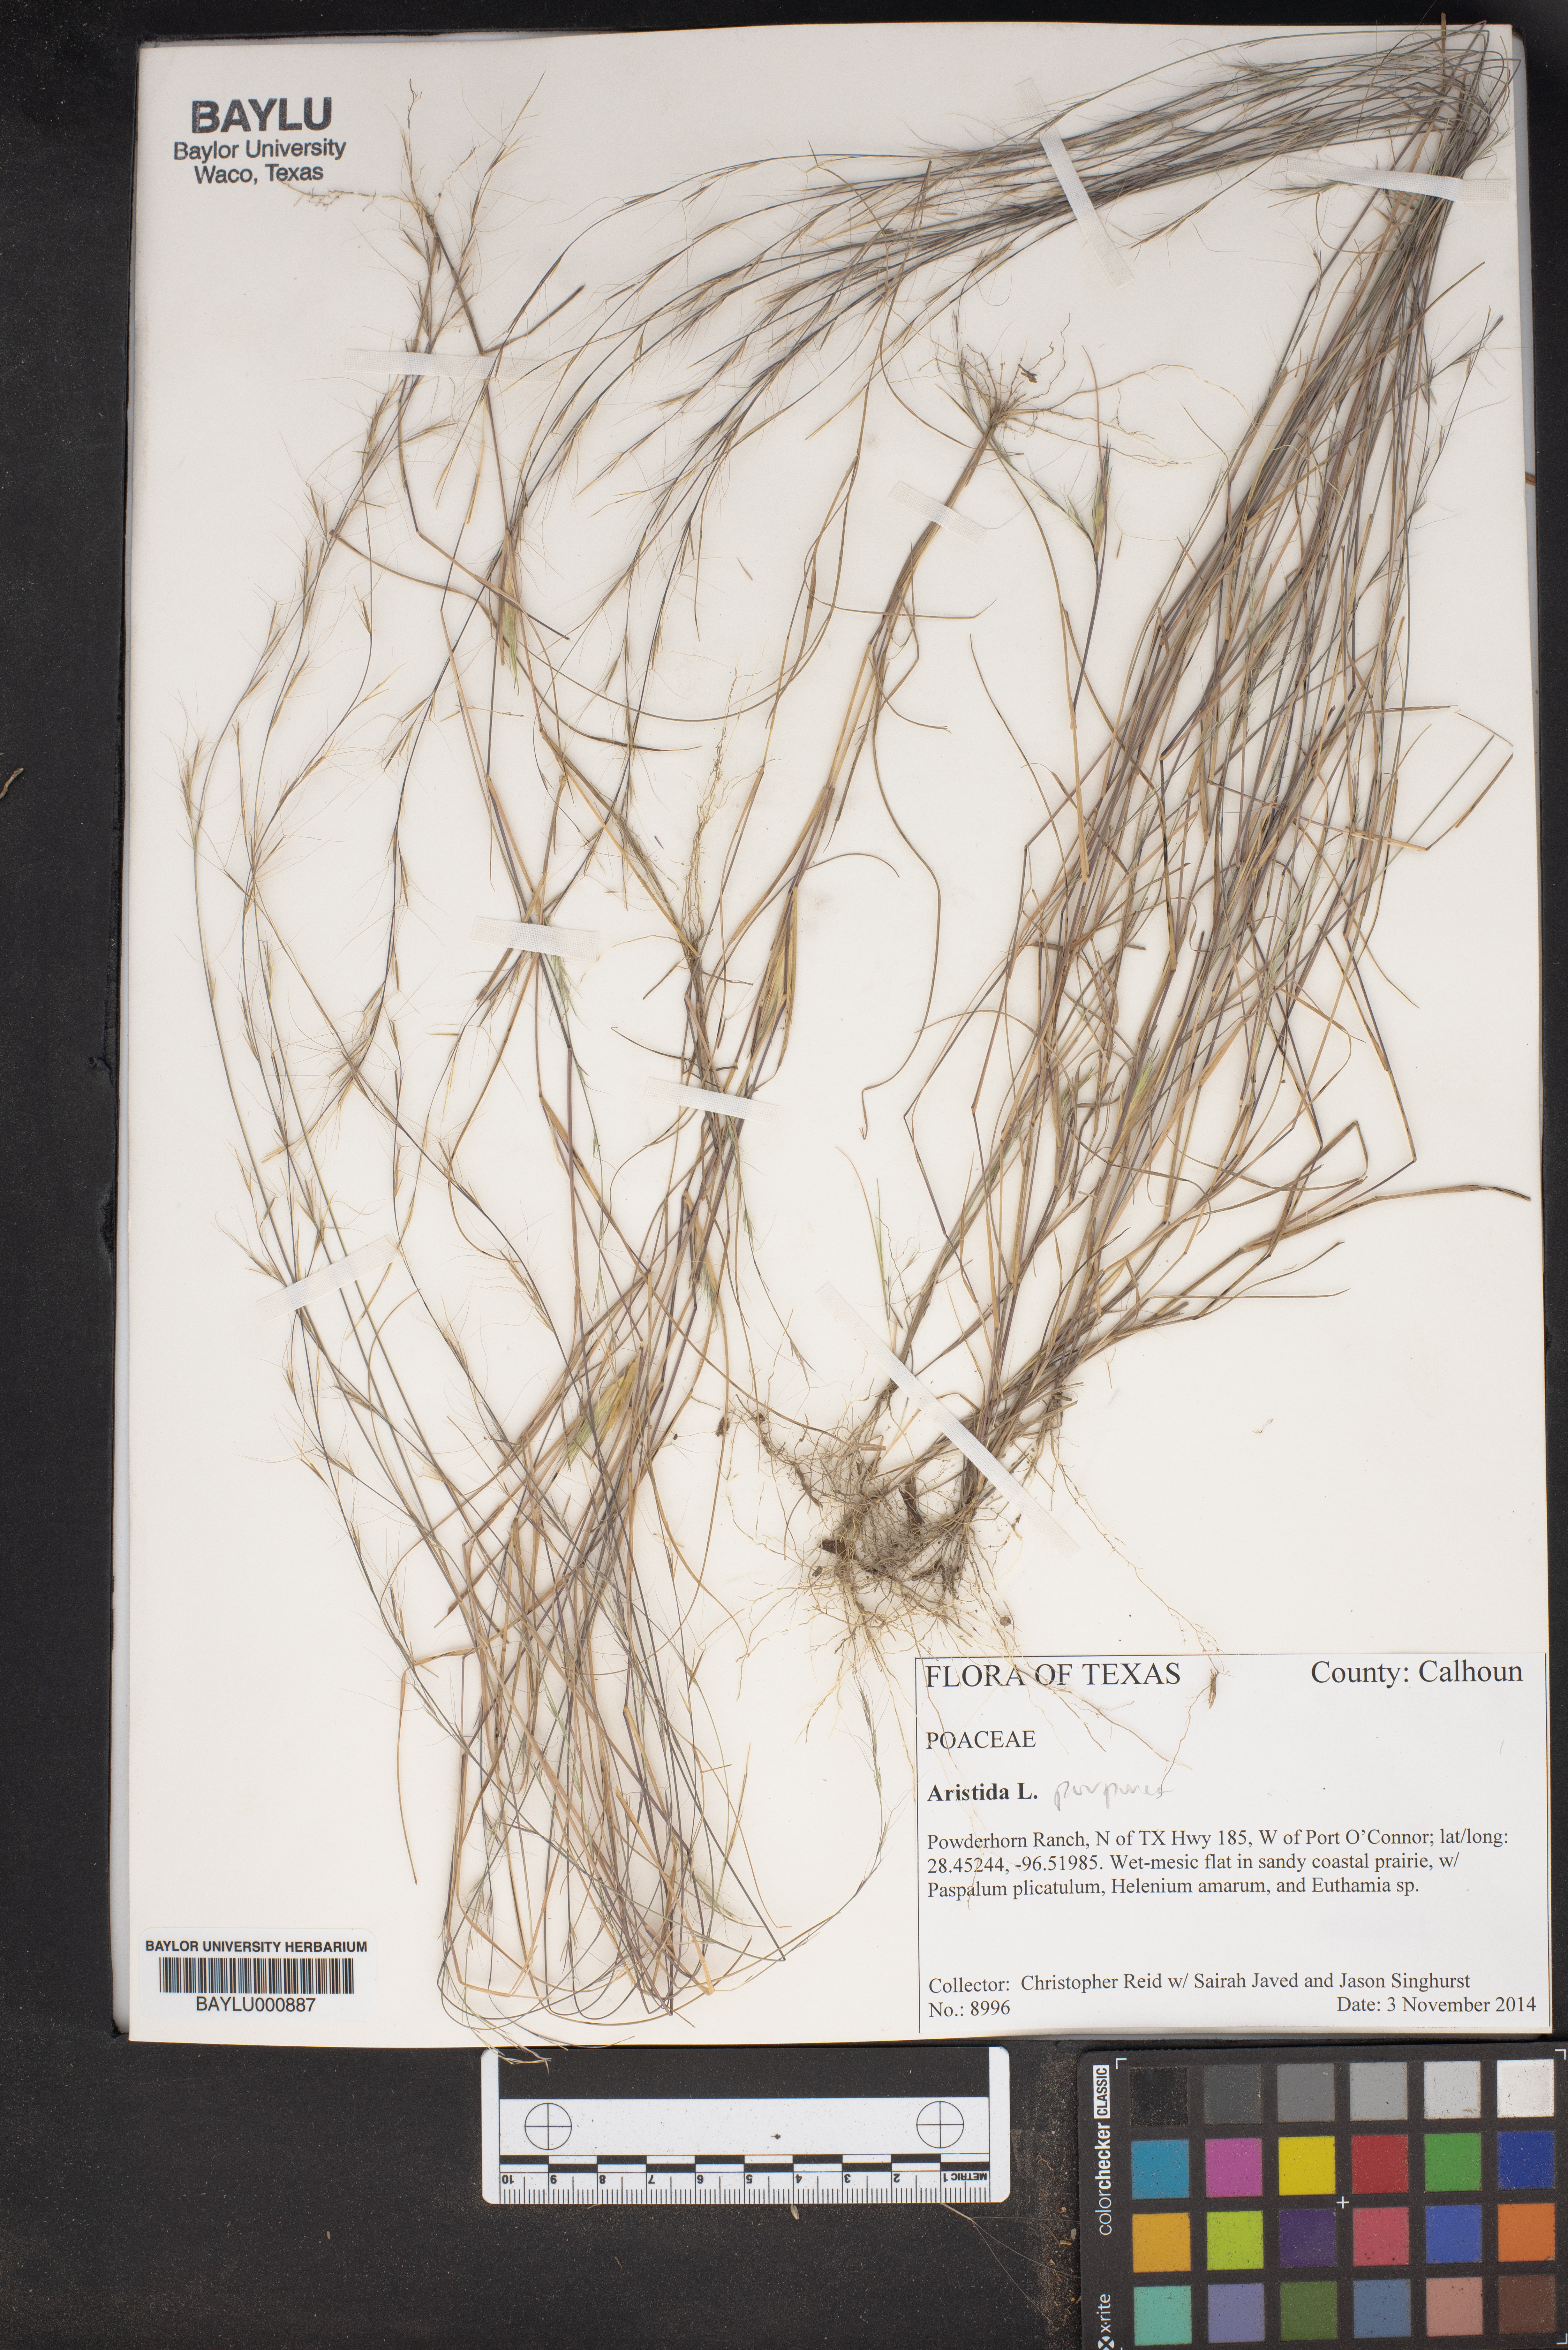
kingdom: Plantae
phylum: Tracheophyta
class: Liliopsida
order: Poales
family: Poaceae
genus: Aristida
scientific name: Aristida purpurea
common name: Purple threeawn
